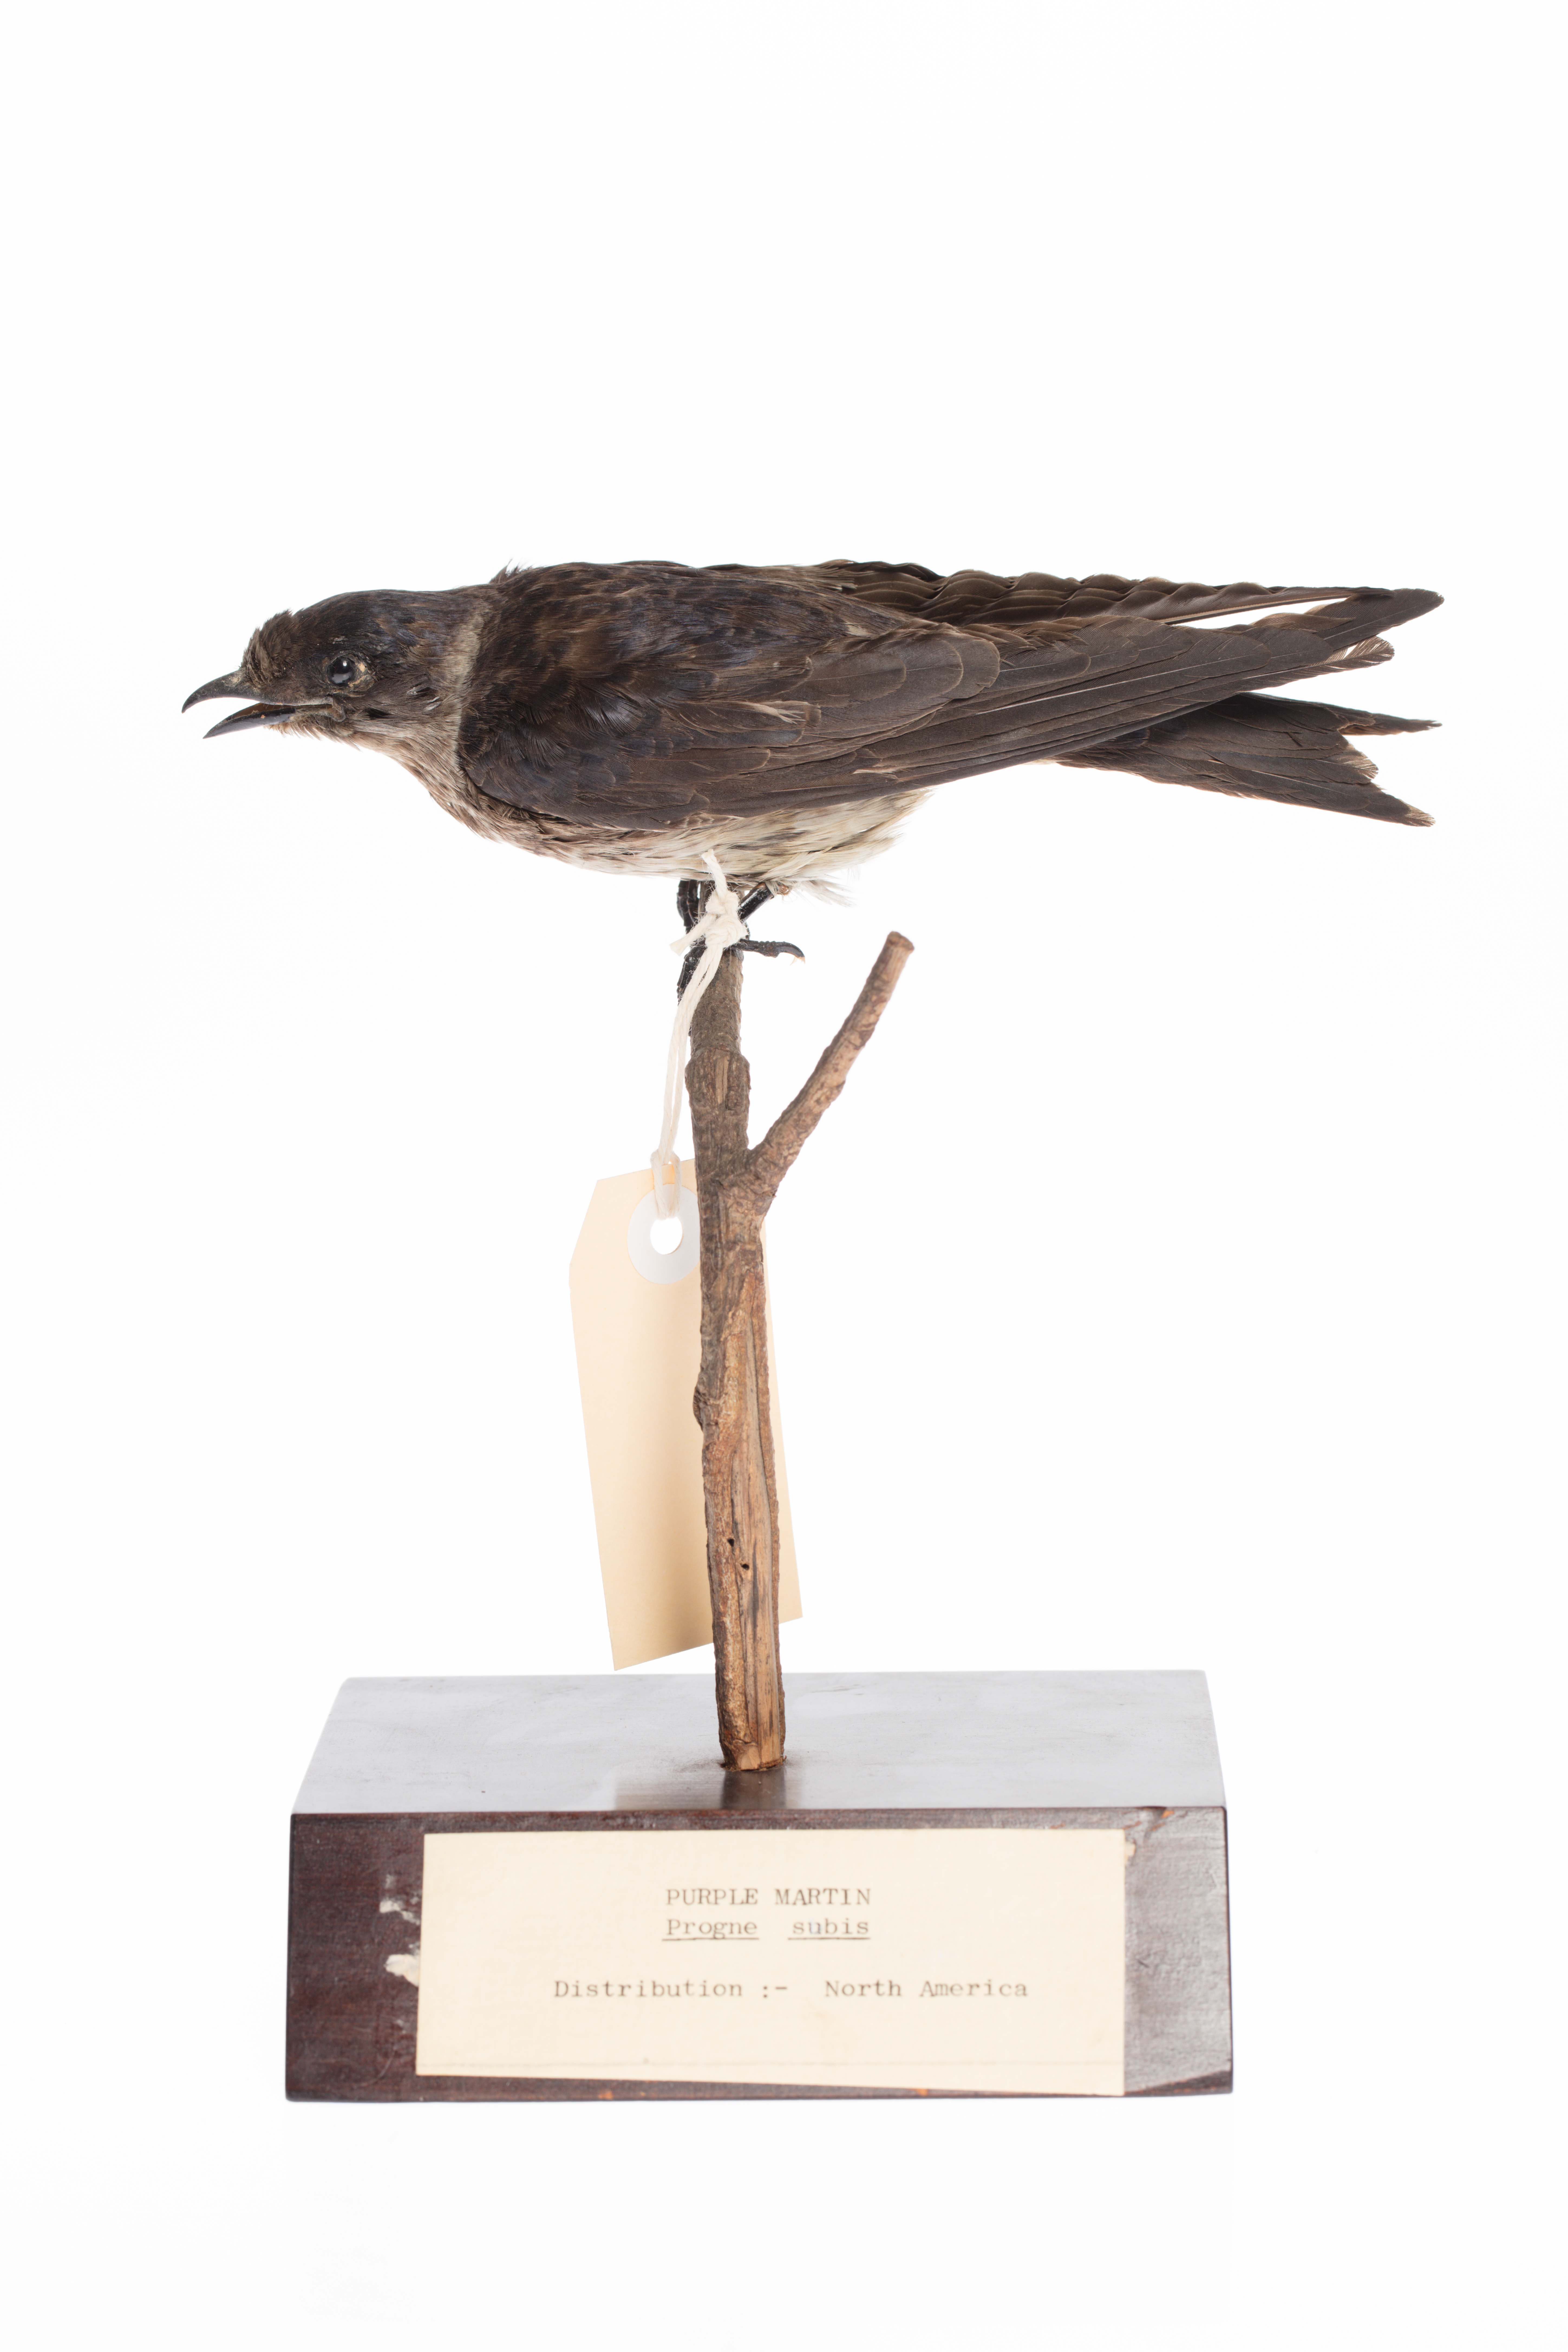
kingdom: Animalia
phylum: Chordata
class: Aves
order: Passeriformes
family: Hirundinidae
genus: Progne
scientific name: Progne subis
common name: Purple martin
